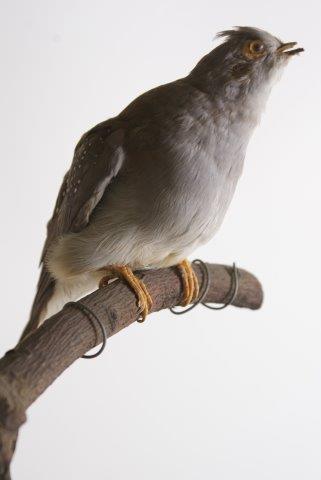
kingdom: Animalia
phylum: Chordata
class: Aves
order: Columbiformes
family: Columbidae
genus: Geopelia
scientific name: Geopelia cuneata
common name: Diamond dove
